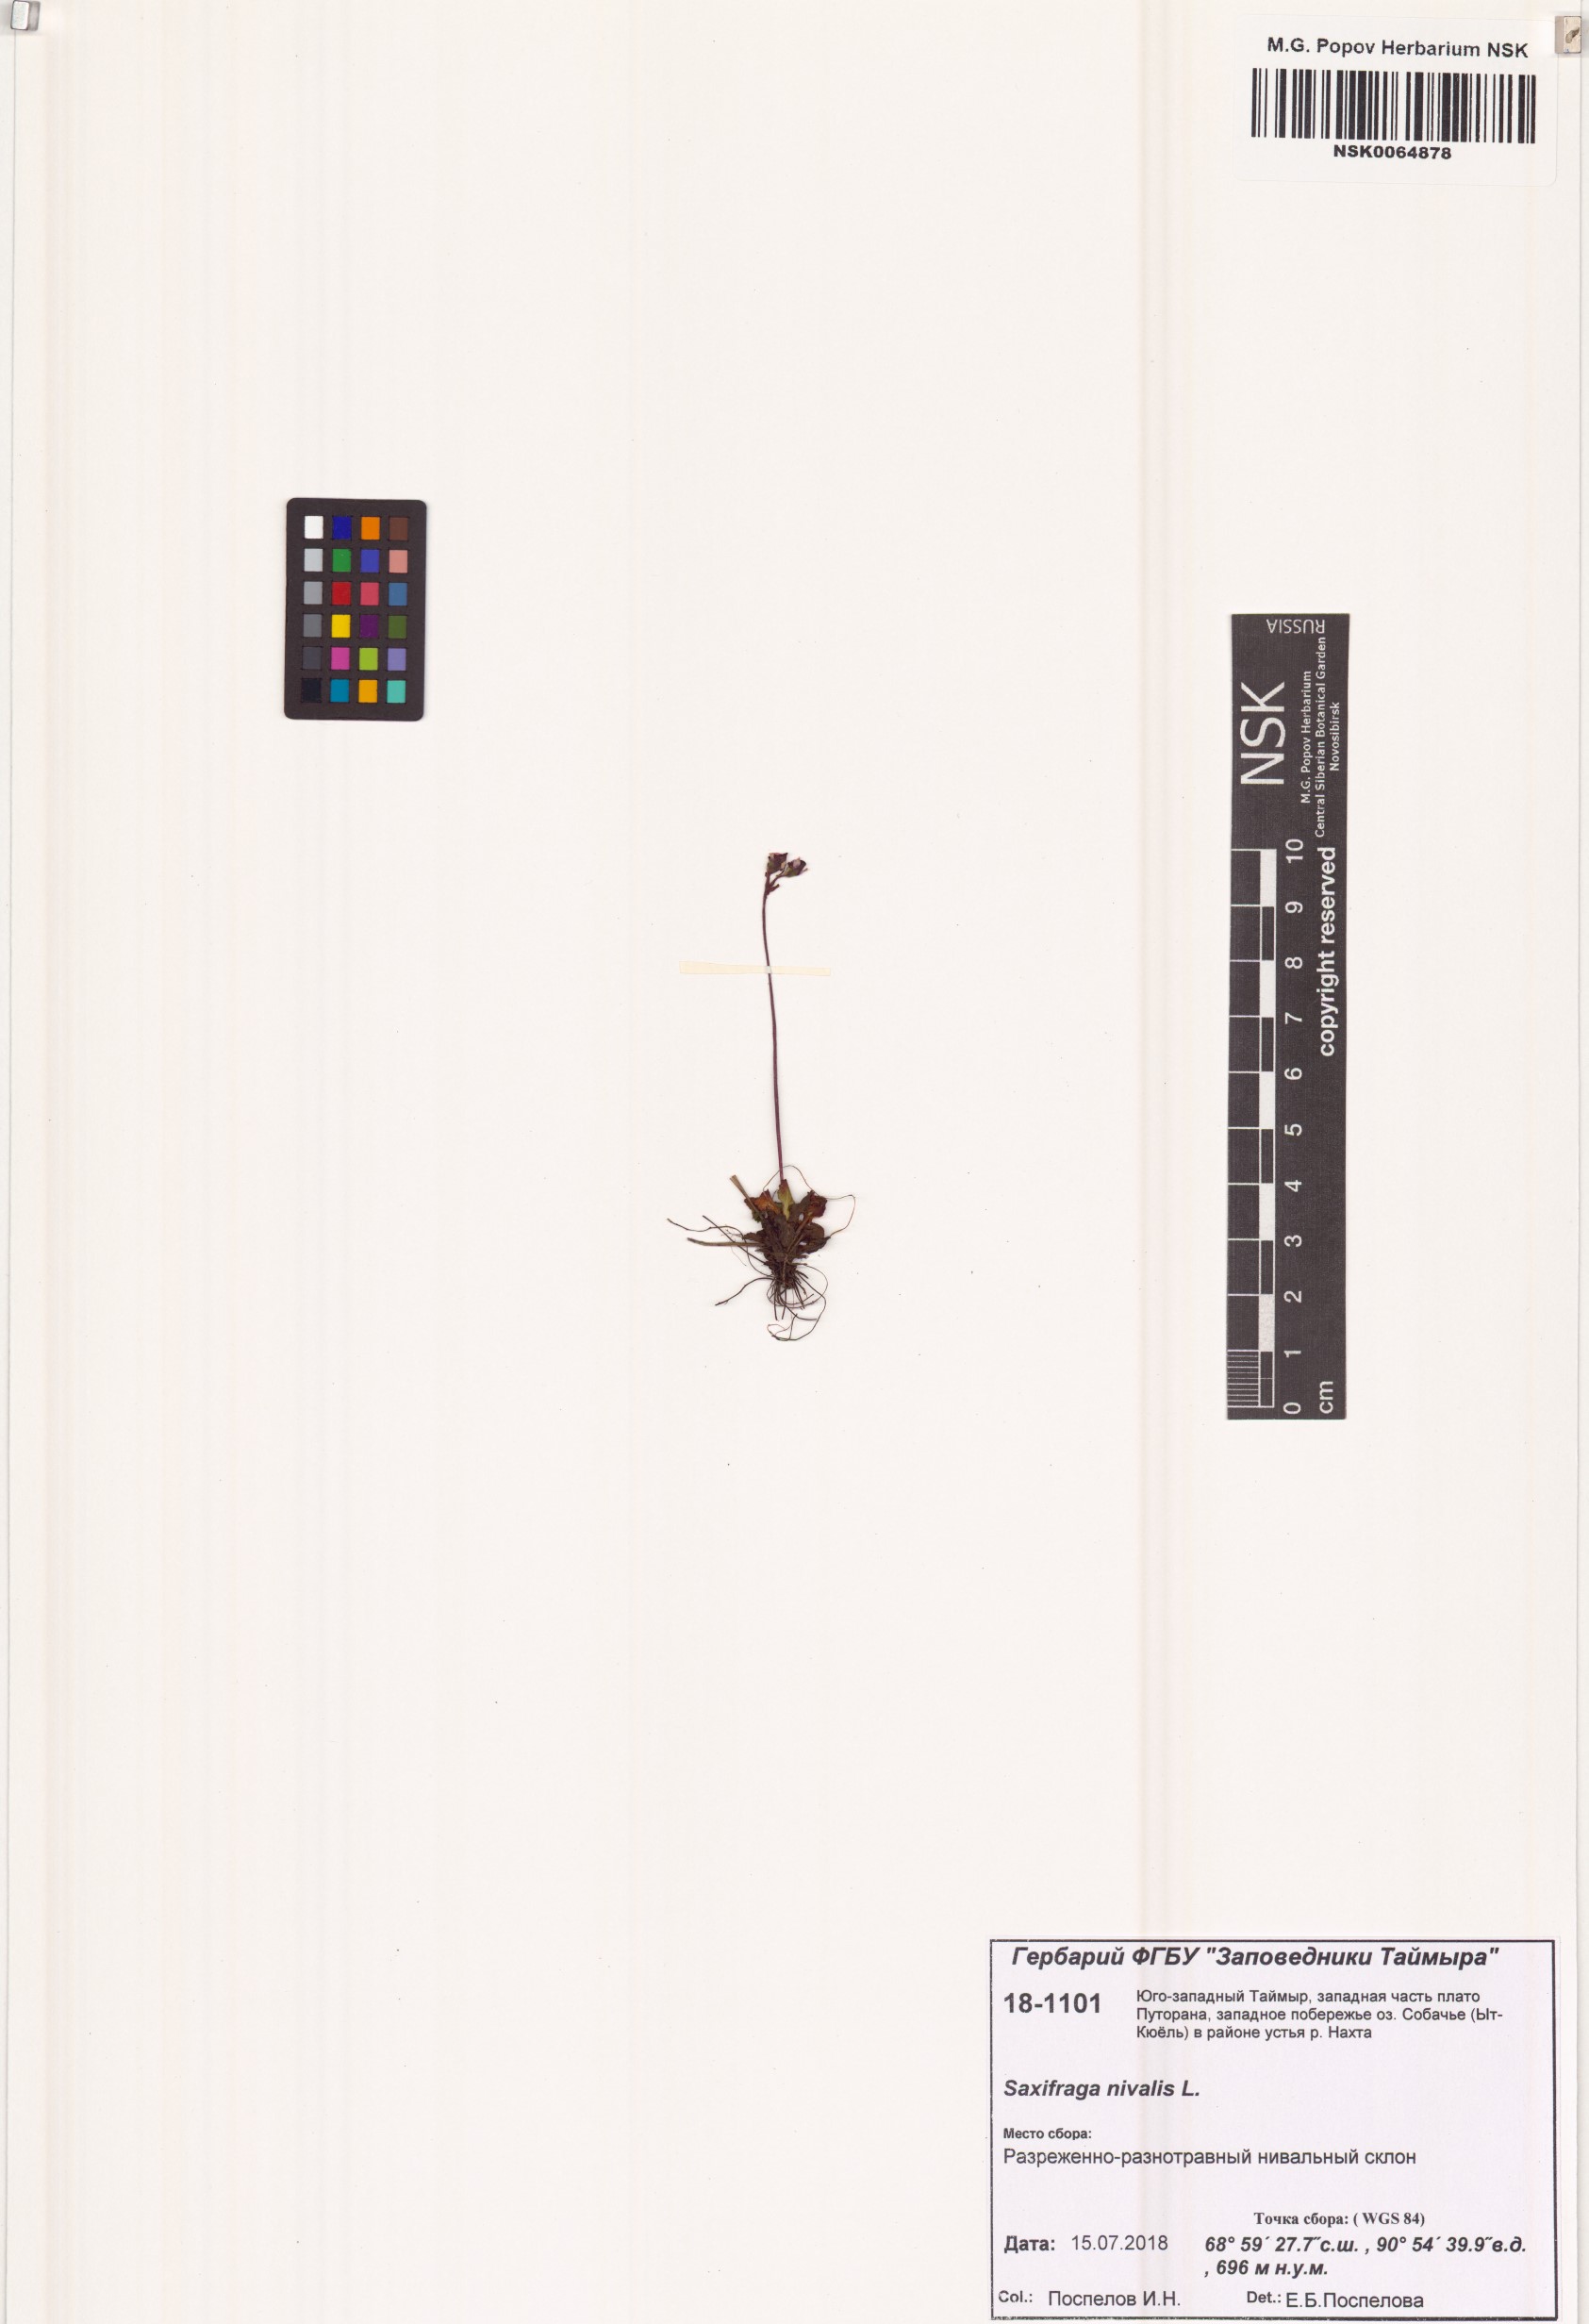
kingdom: Plantae
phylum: Tracheophyta
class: Magnoliopsida
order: Saxifragales
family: Saxifragaceae
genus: Micranthes
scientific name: Micranthes nivalis
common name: Alpine saxifrage
